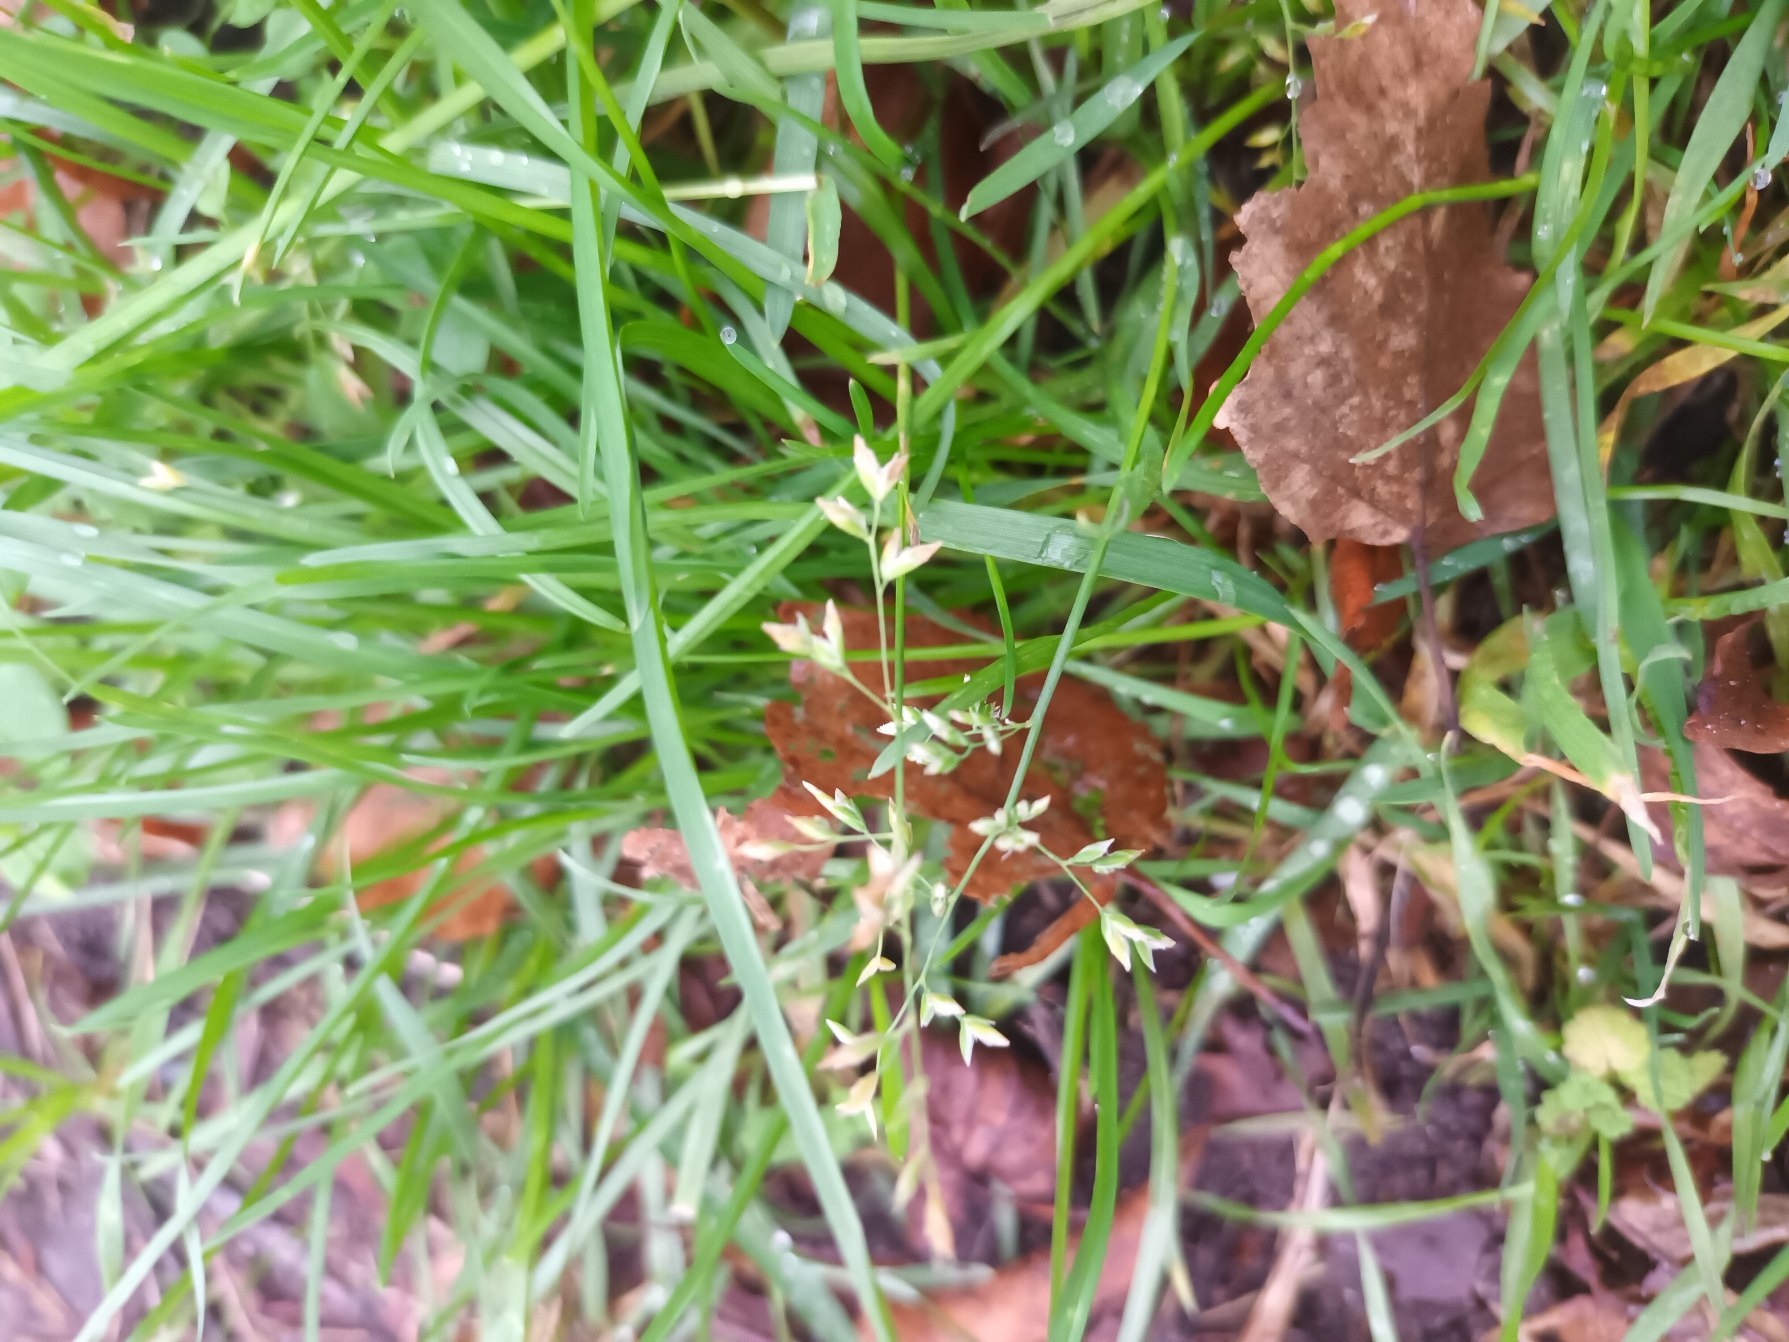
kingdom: Plantae
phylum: Tracheophyta
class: Liliopsida
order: Poales
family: Poaceae
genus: Poa
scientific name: Poa annua
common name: Enårig rapgræs
